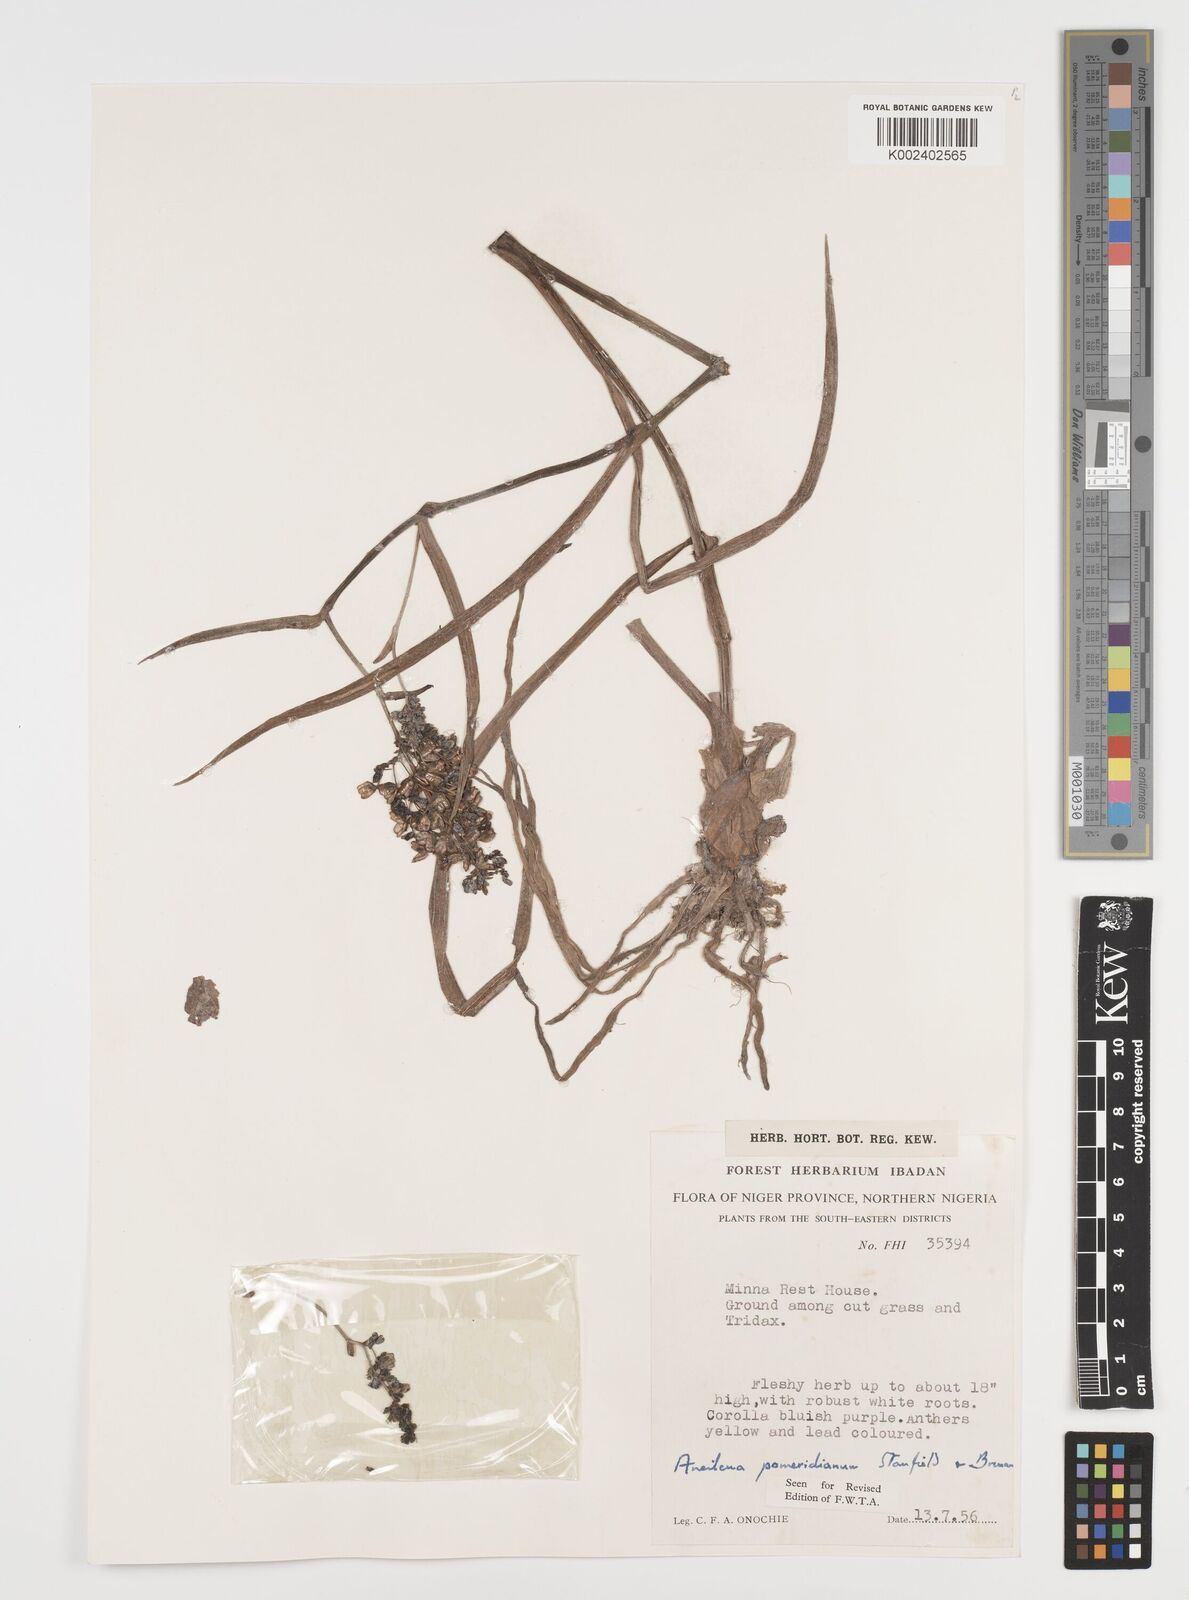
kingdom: Plantae
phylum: Tracheophyta
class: Liliopsida
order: Commelinales
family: Commelinaceae
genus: Aneilema
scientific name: Aneilema pomeridianum
